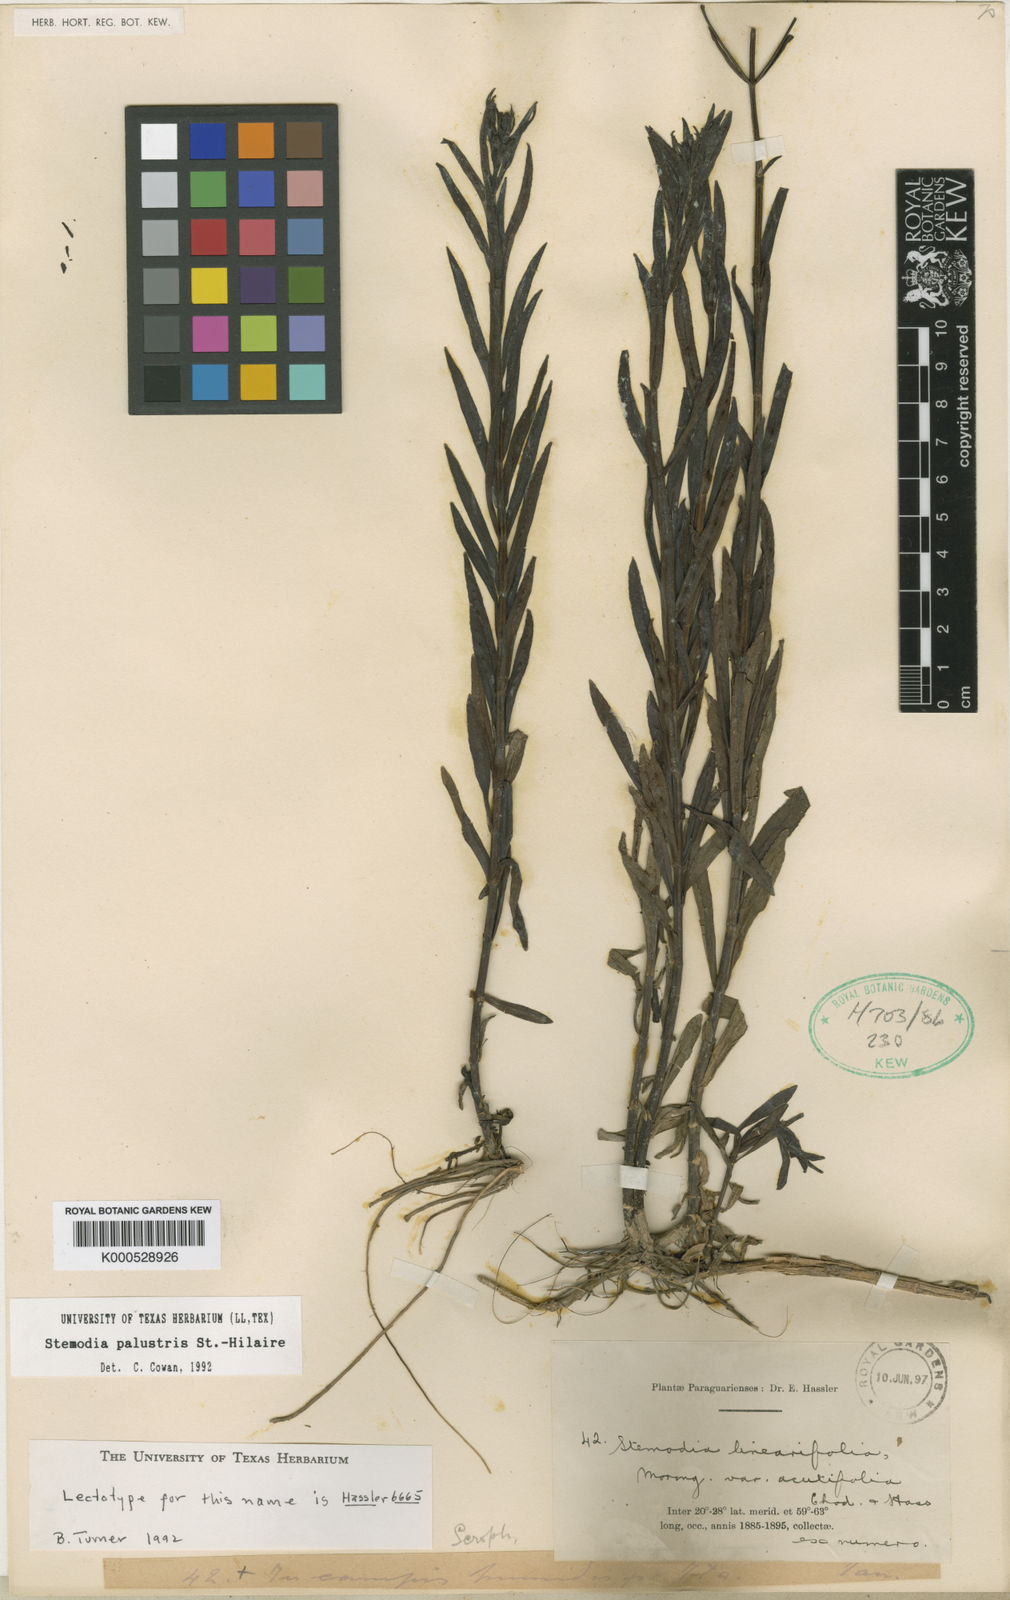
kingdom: Plantae
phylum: Tracheophyta
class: Magnoliopsida
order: Lamiales
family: Plantaginaceae
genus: Stemodia
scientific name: Stemodia palustris
